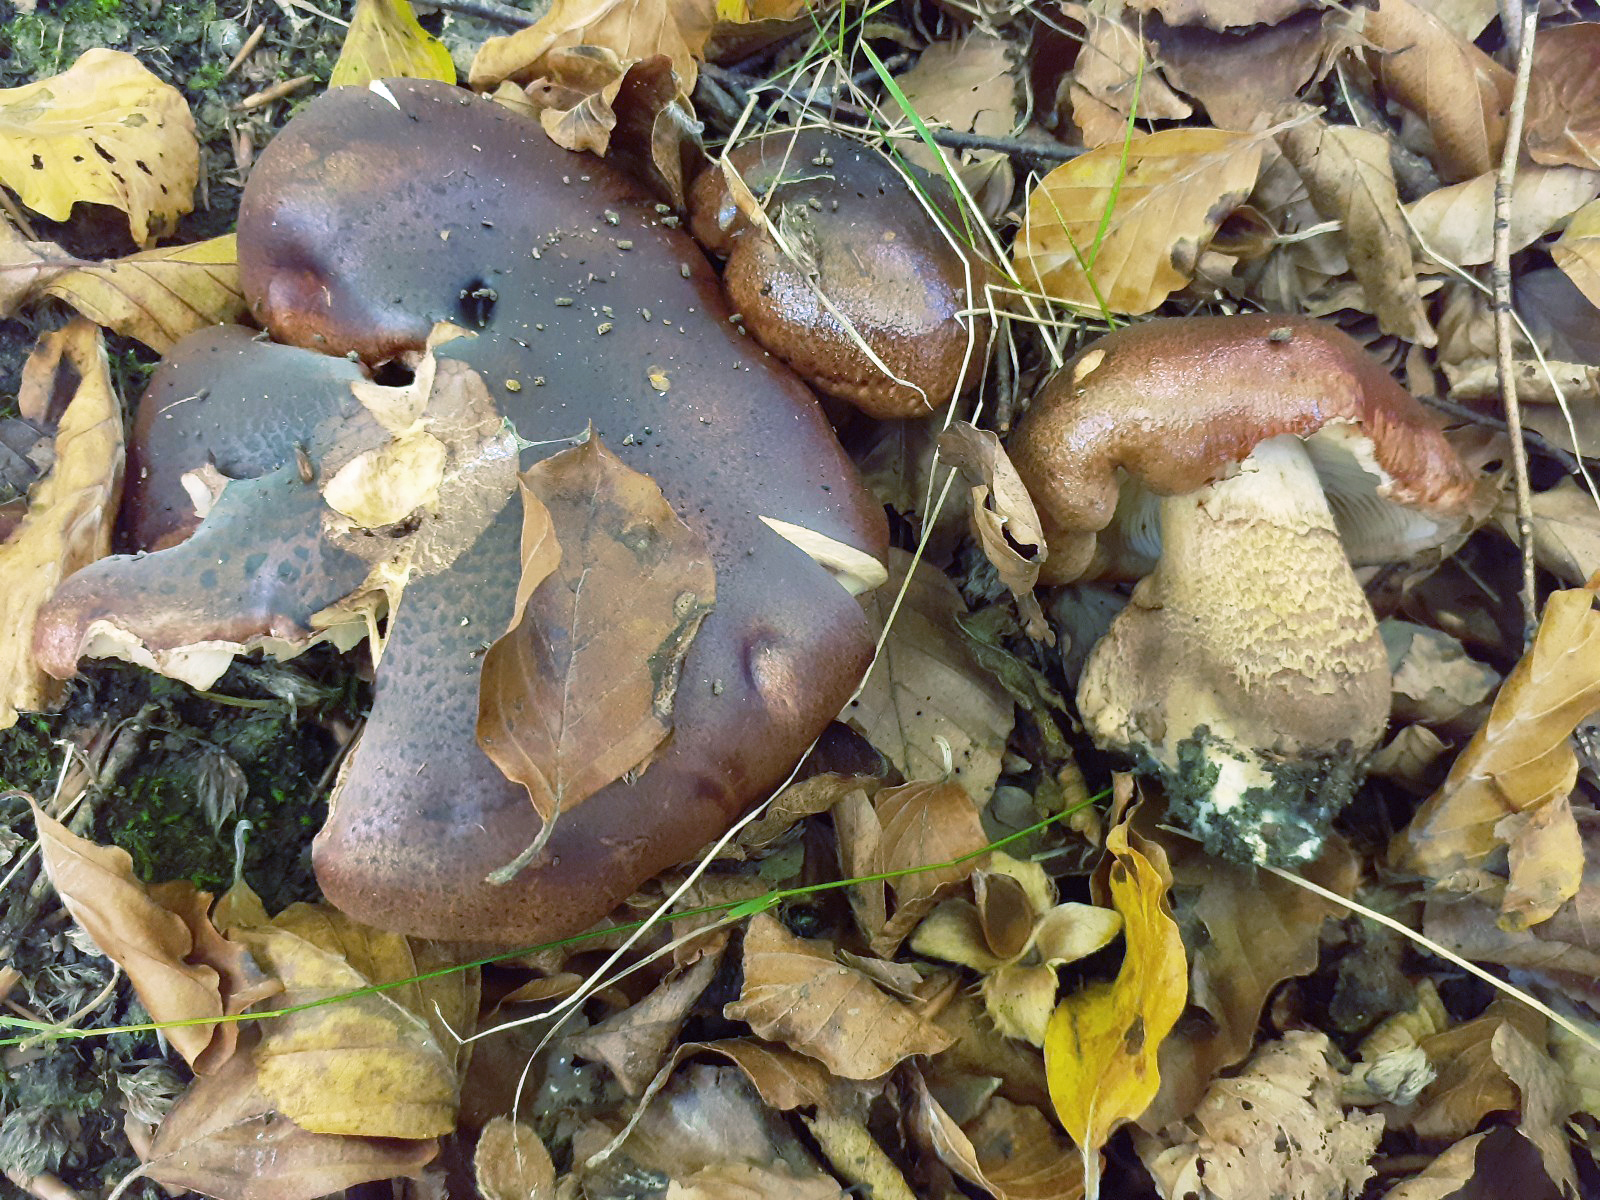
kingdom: Fungi
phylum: Basidiomycota
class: Agaricomycetes
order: Agaricales
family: Tricholomataceae
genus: Tricholoma
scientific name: Tricholoma ustaloides
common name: knippe-ridderhat
